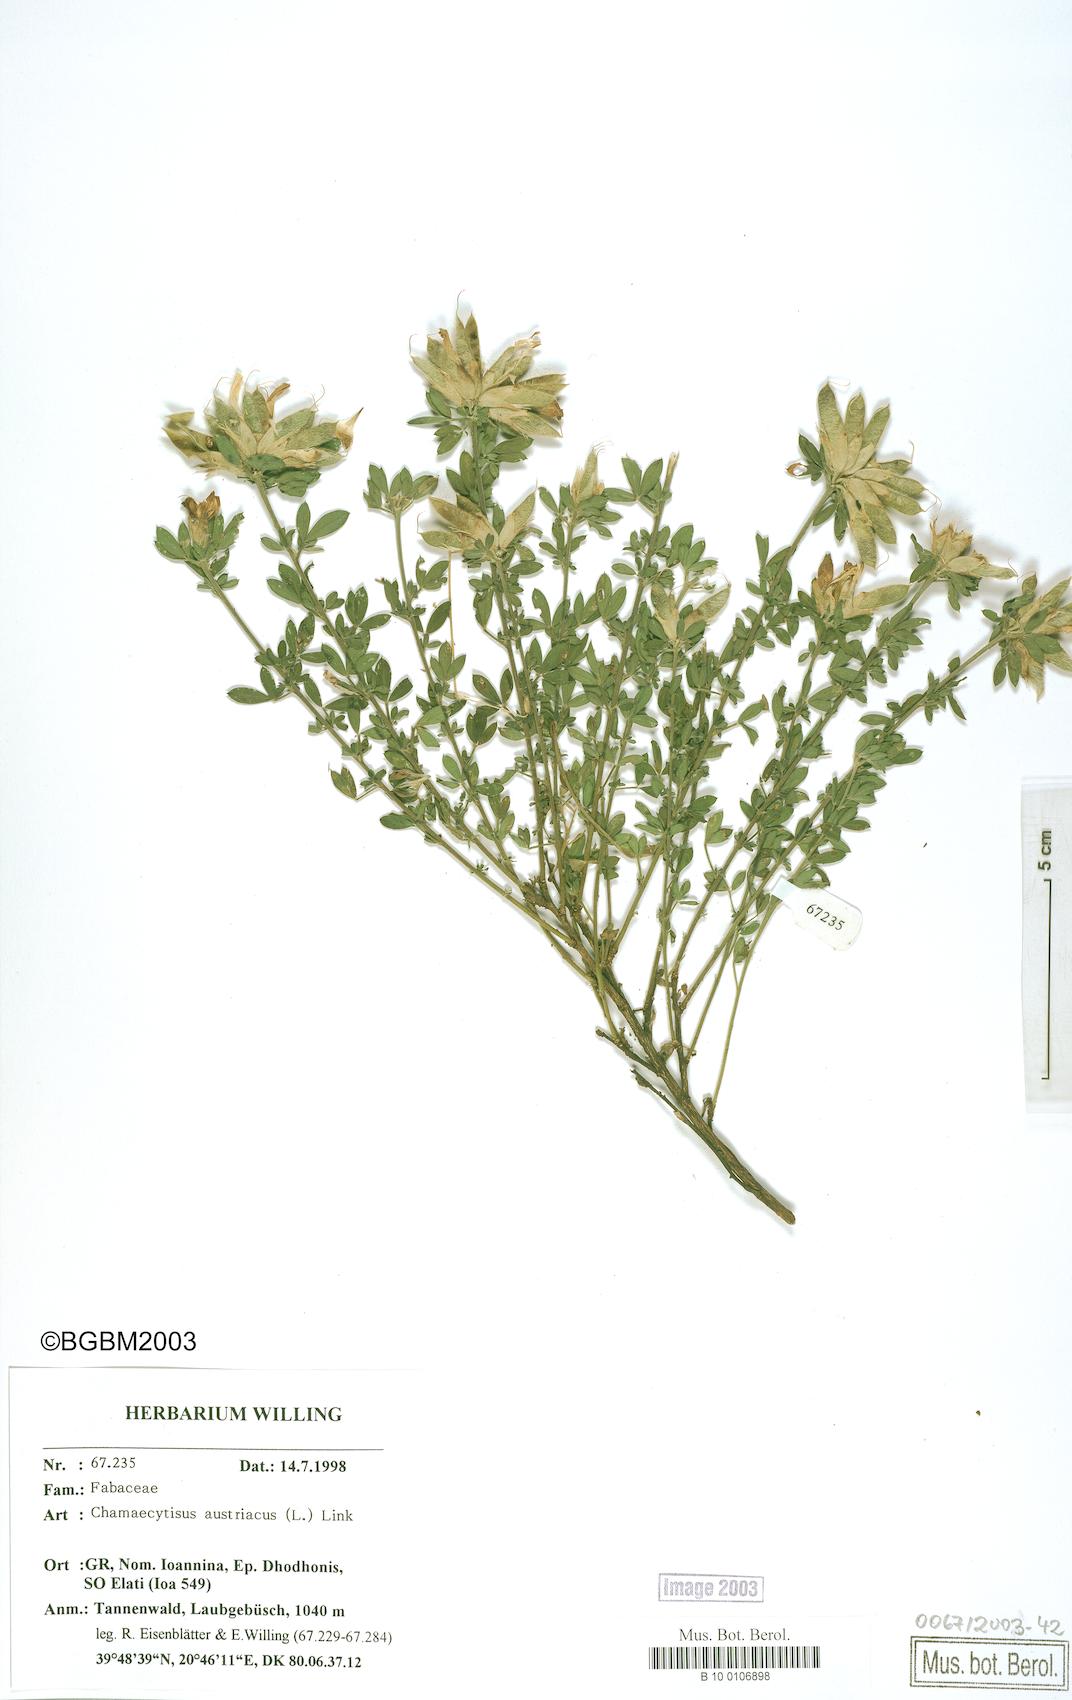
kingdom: Plantae
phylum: Tracheophyta
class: Magnoliopsida
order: Fabales
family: Fabaceae
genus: Chamaecytisus
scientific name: Chamaecytisus austriacus
